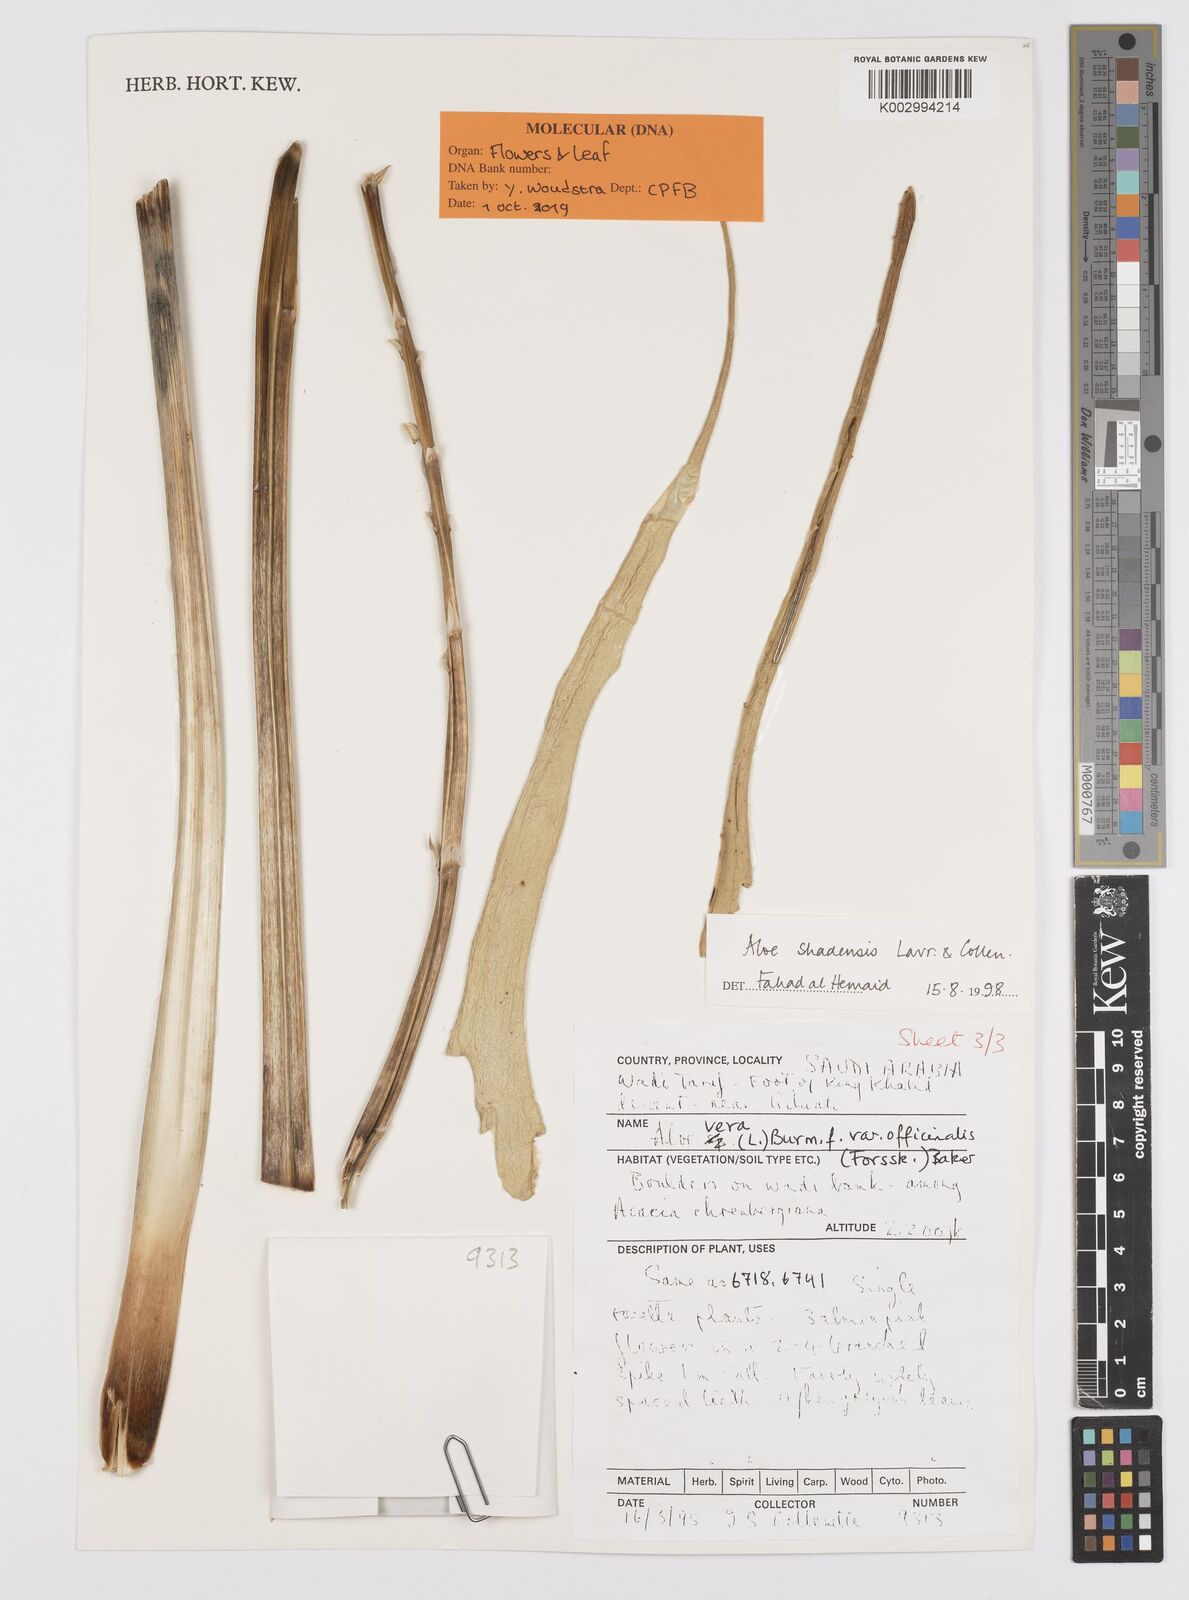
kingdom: Plantae
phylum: Tracheophyta
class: Liliopsida
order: Asparagales
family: Asphodelaceae
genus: Aloe
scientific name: Aloe shadensis
